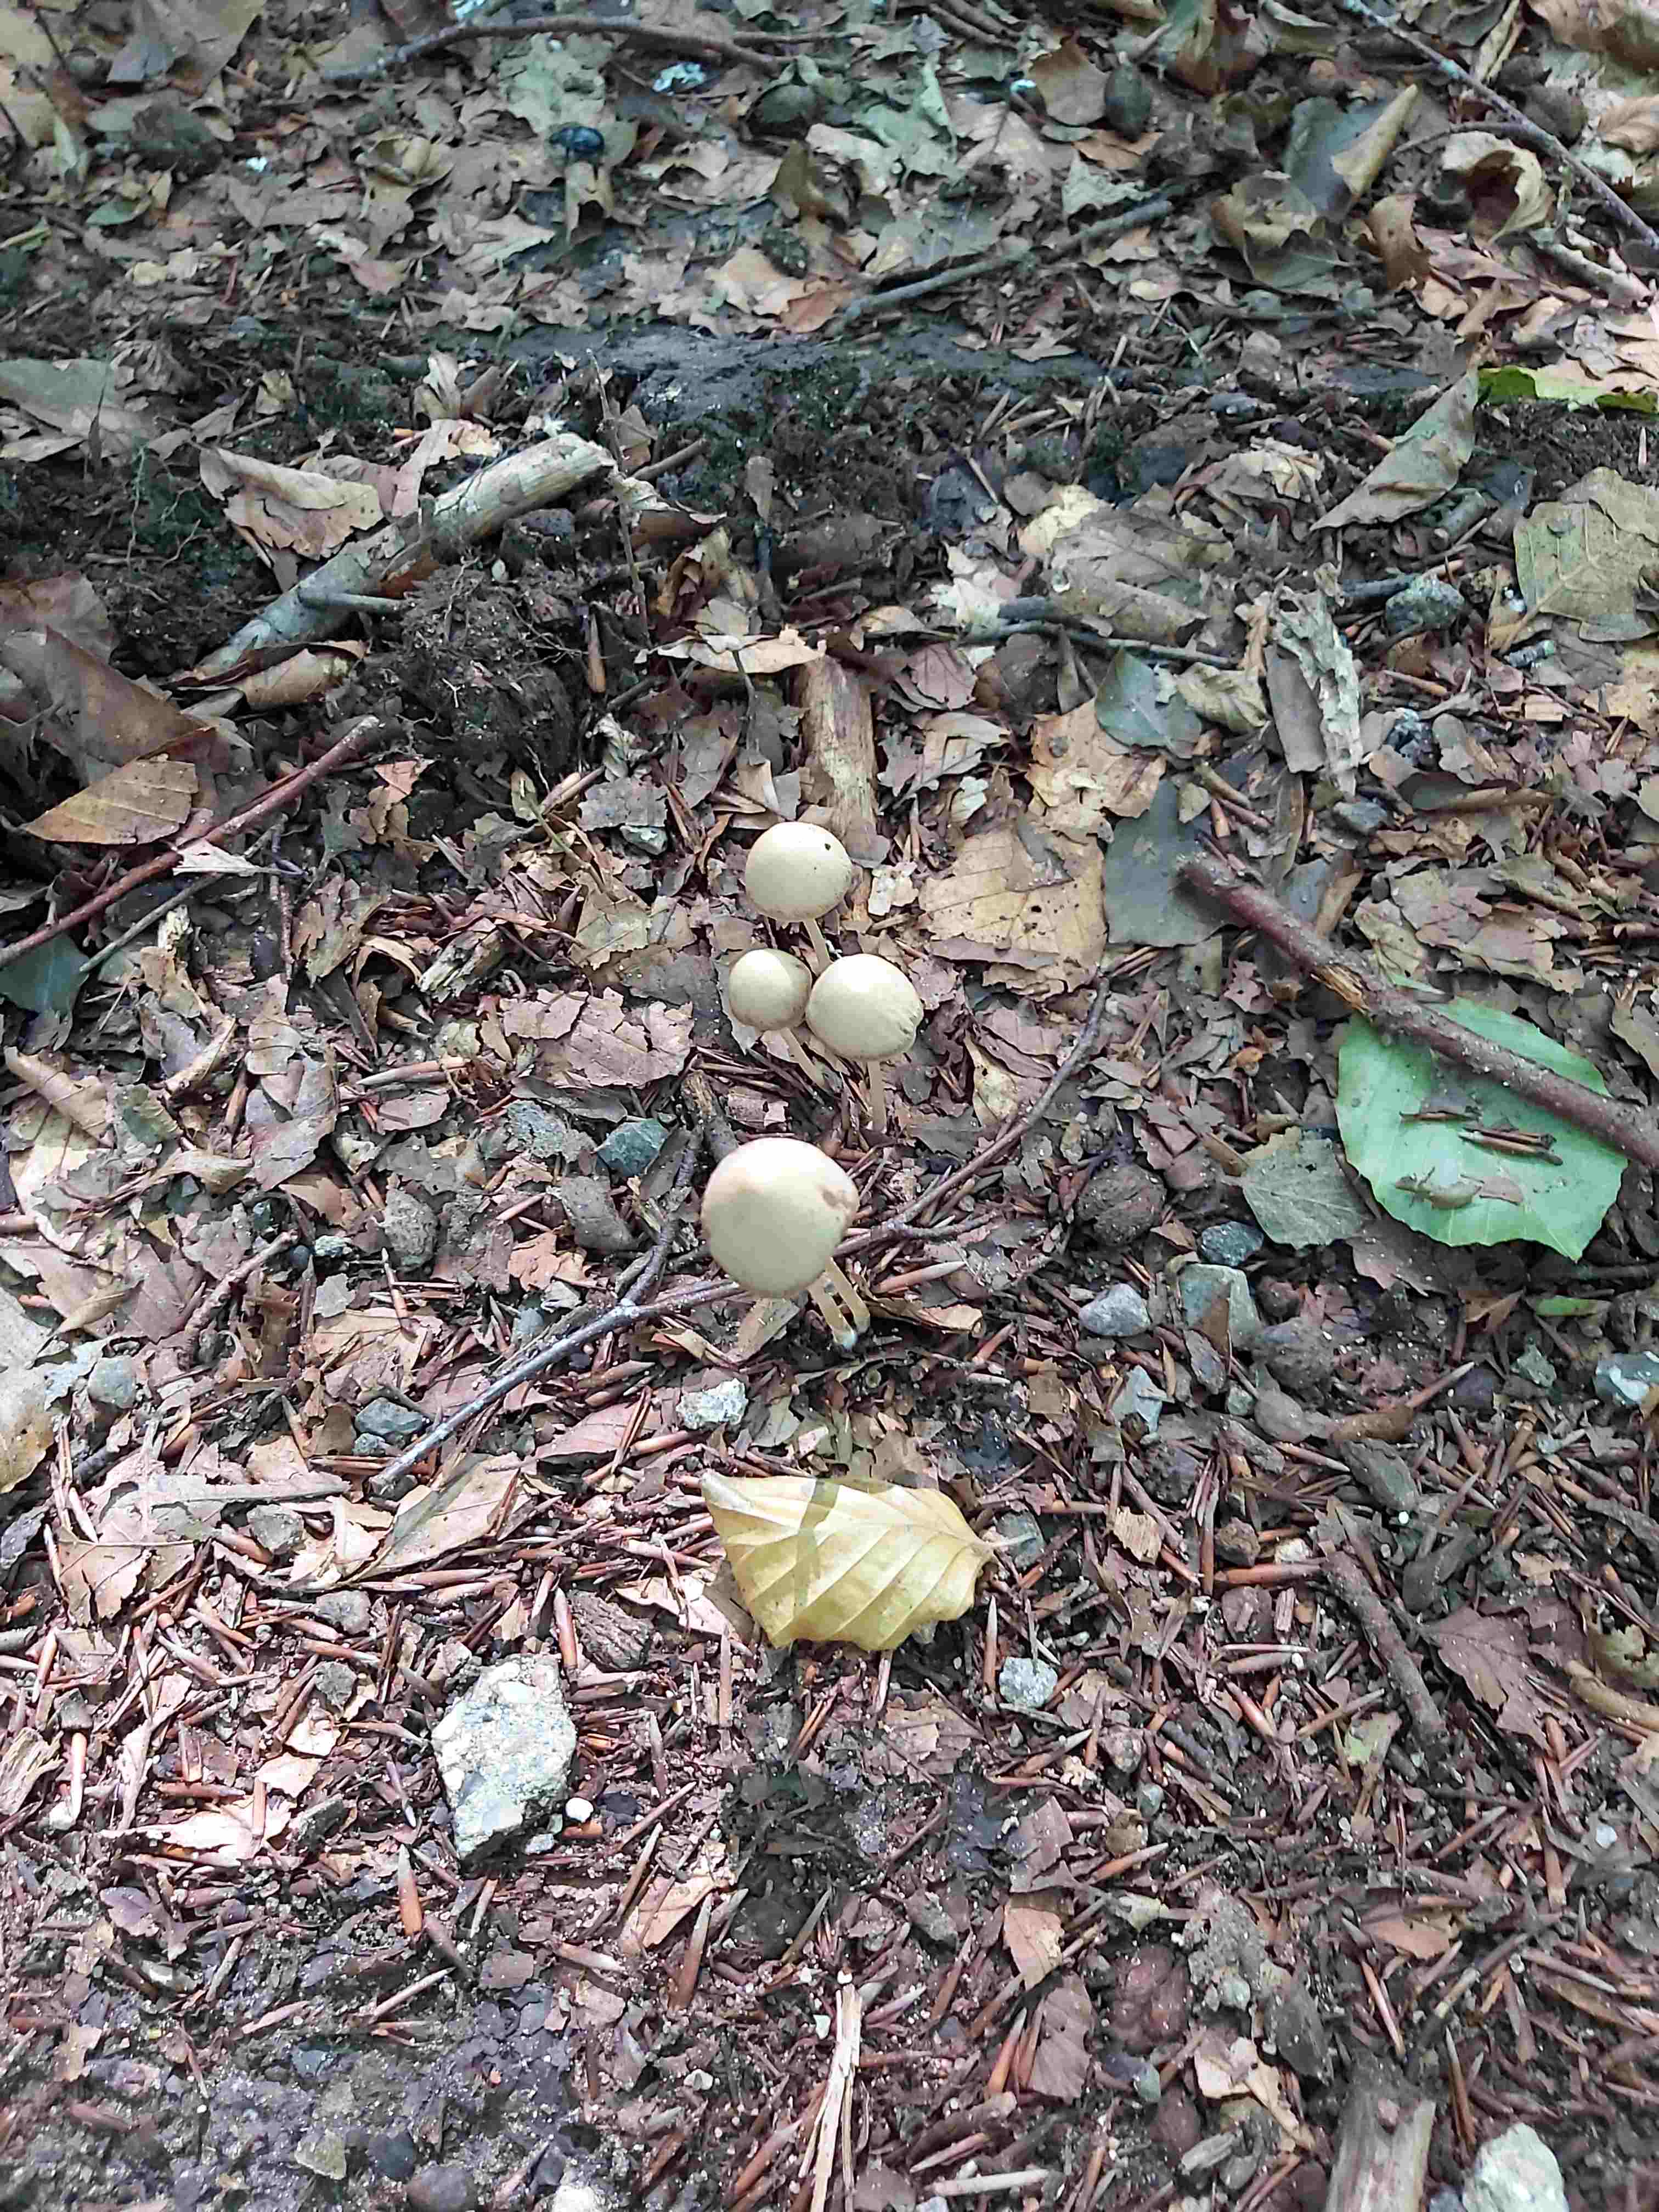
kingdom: Fungi
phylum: Basidiomycota
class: Agaricomycetes
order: Agaricales
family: Psathyrellaceae
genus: Parasola
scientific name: Parasola conopilea
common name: kegle-hjulhat
